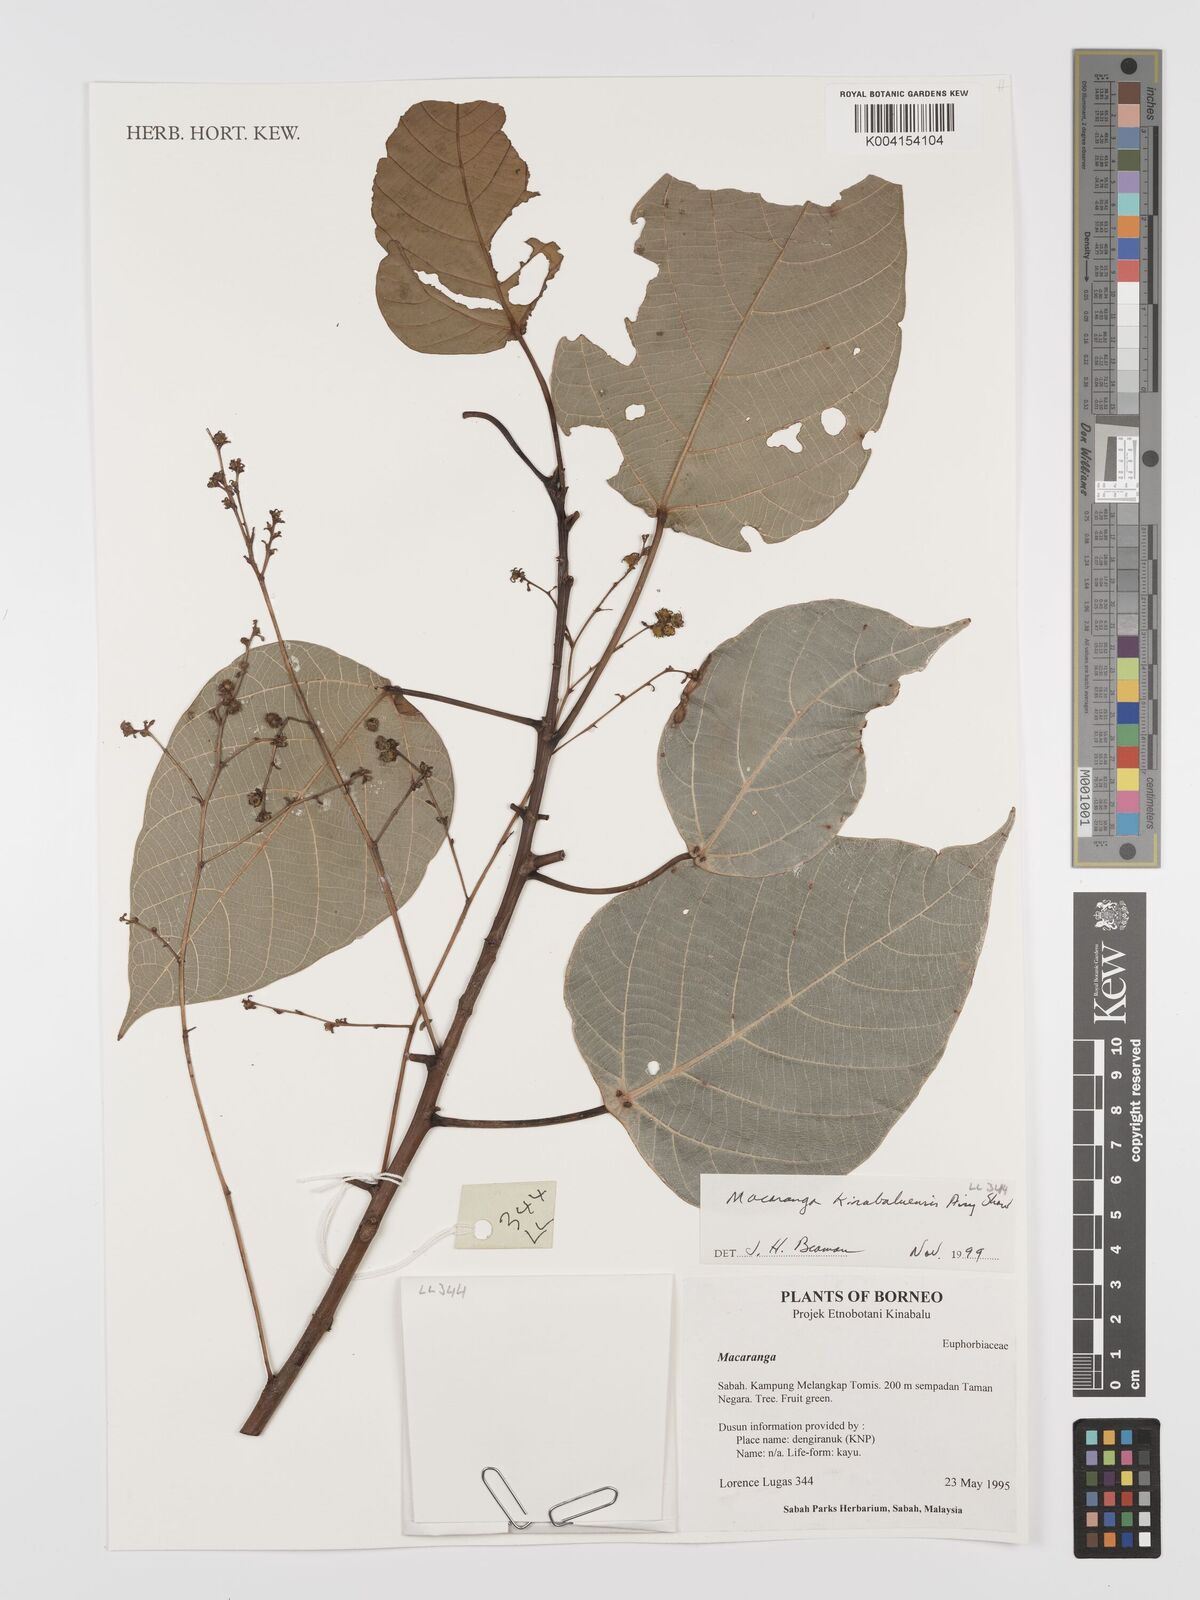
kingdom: Plantae
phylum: Tracheophyta
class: Magnoliopsida
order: Malpighiales
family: Euphorbiaceae
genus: Macaranga
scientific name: Macaranga kinabaluensis
